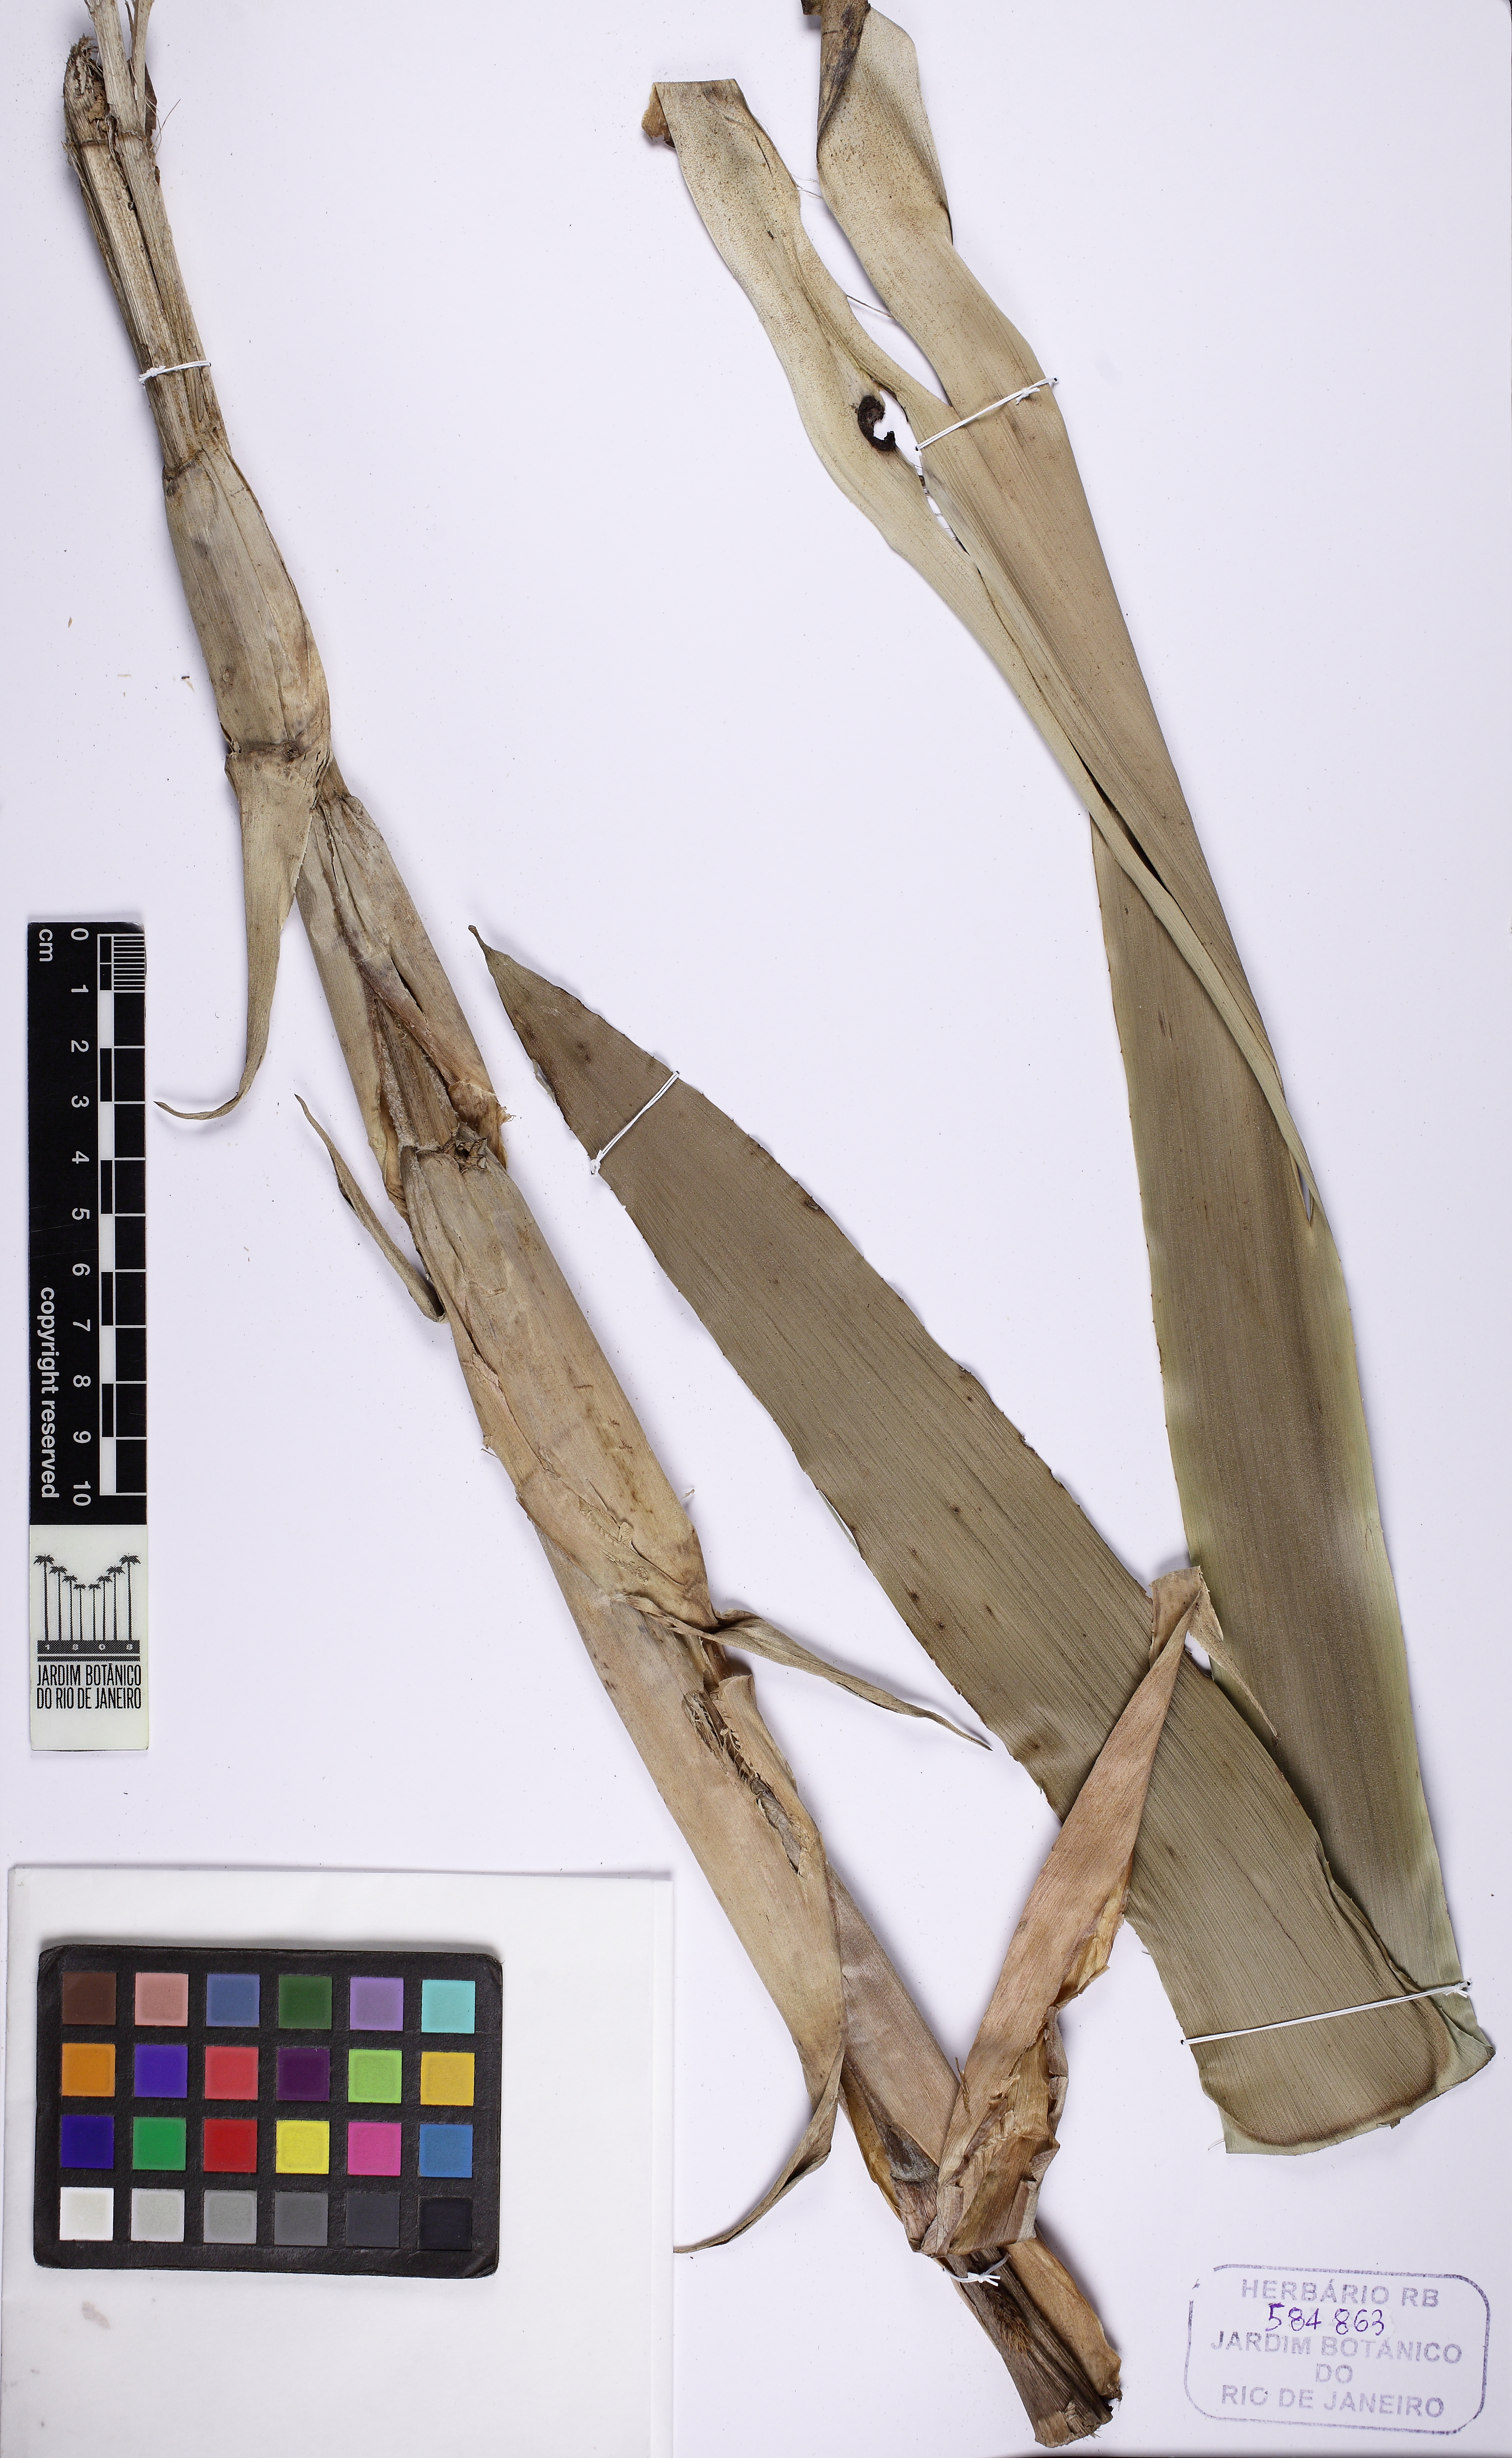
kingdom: Plantae
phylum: Tracheophyta
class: Liliopsida
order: Poales
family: Bromeliaceae
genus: Aechmea
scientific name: Aechmea ramosa
